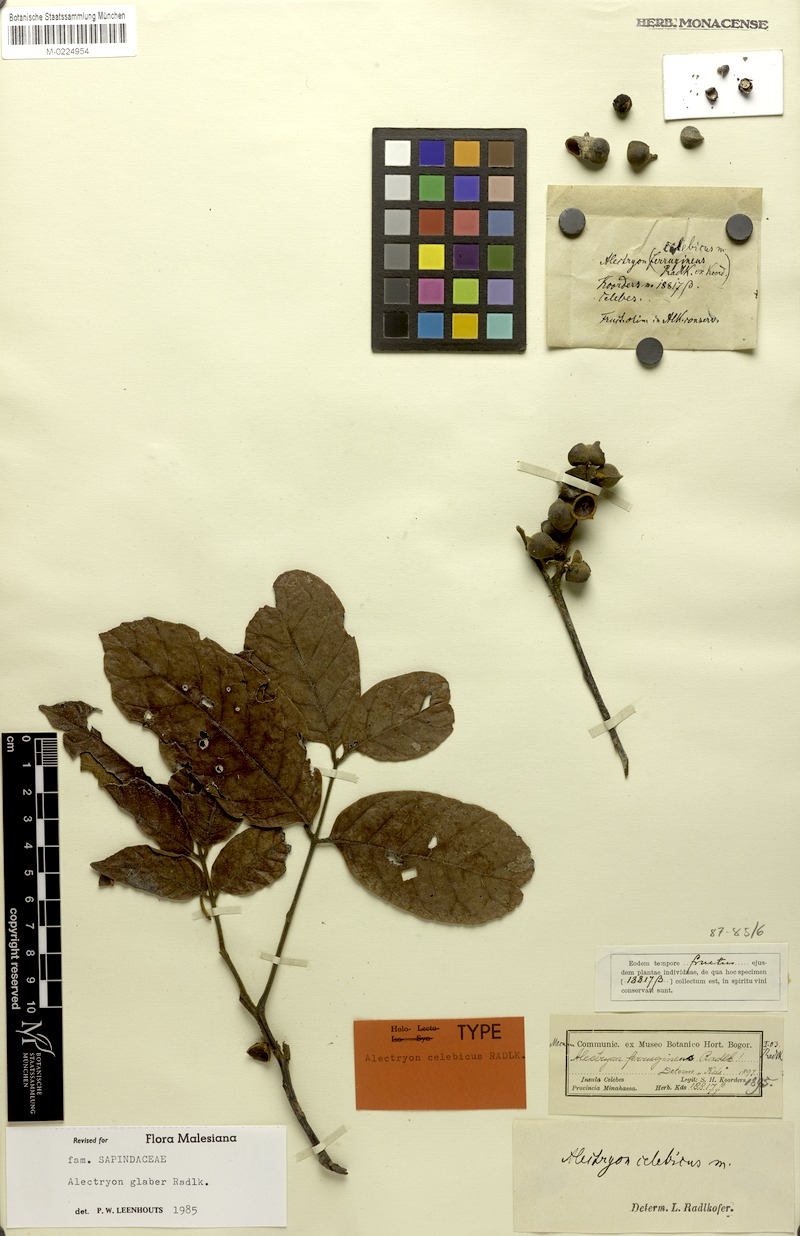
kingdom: Plantae
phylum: Tracheophyta
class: Magnoliopsida
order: Sapindales
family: Sapindaceae
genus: Alectryon
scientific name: Alectryon glaber
